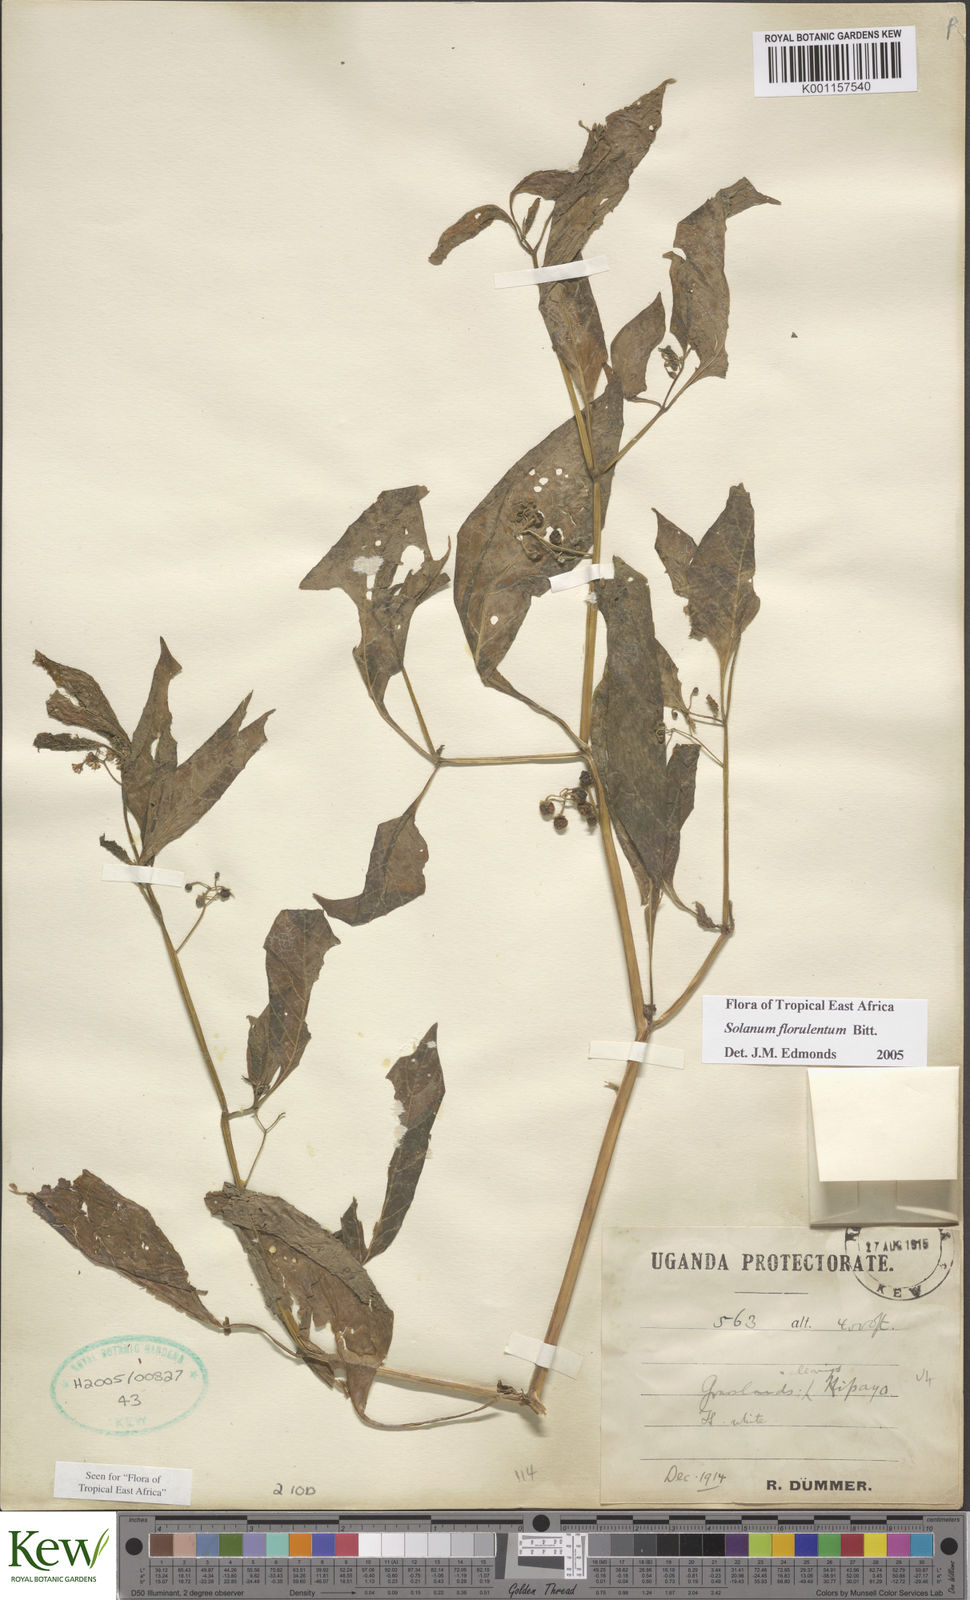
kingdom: Plantae
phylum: Tracheophyta
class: Magnoliopsida
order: Solanales
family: Solanaceae
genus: Solanum
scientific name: Solanum tarderemotum
